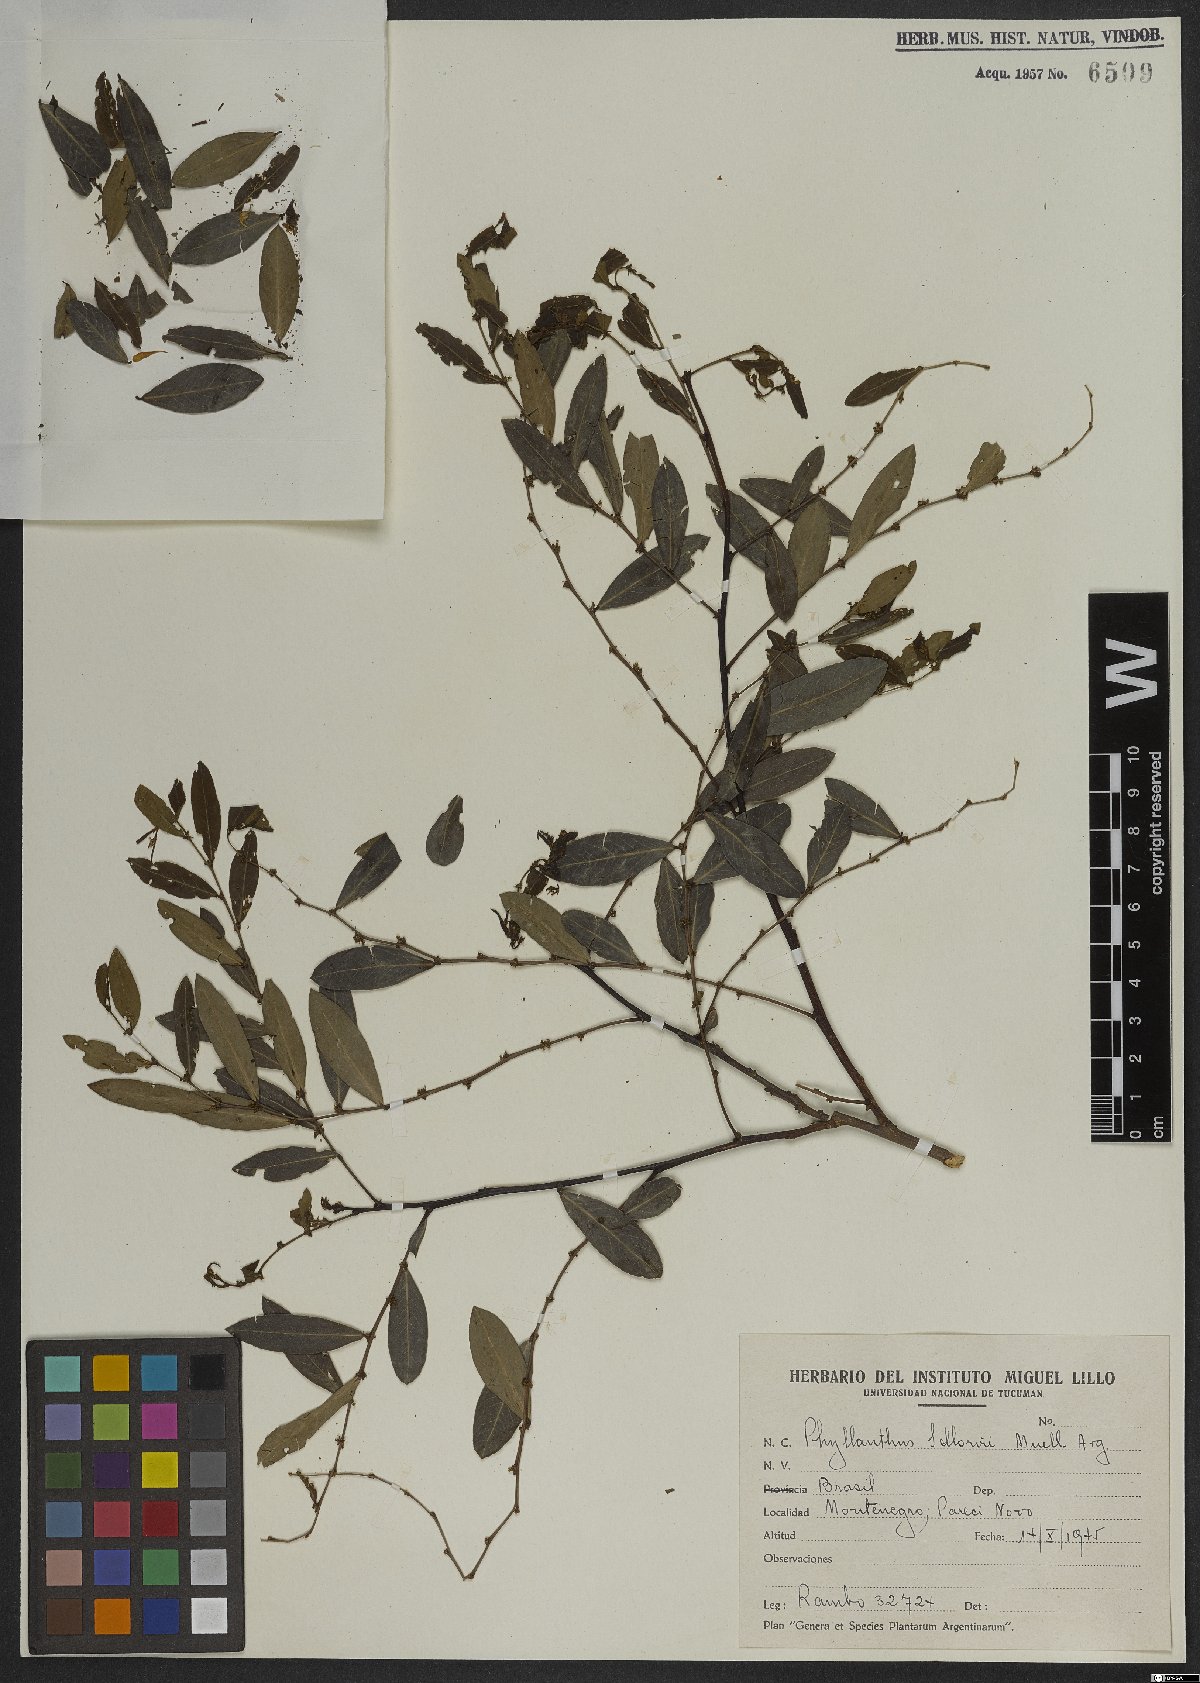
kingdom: Plantae
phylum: Tracheophyta
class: Magnoliopsida
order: Malpighiales
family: Phyllanthaceae
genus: Phyllanthus
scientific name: Phyllanthus sellowianus
